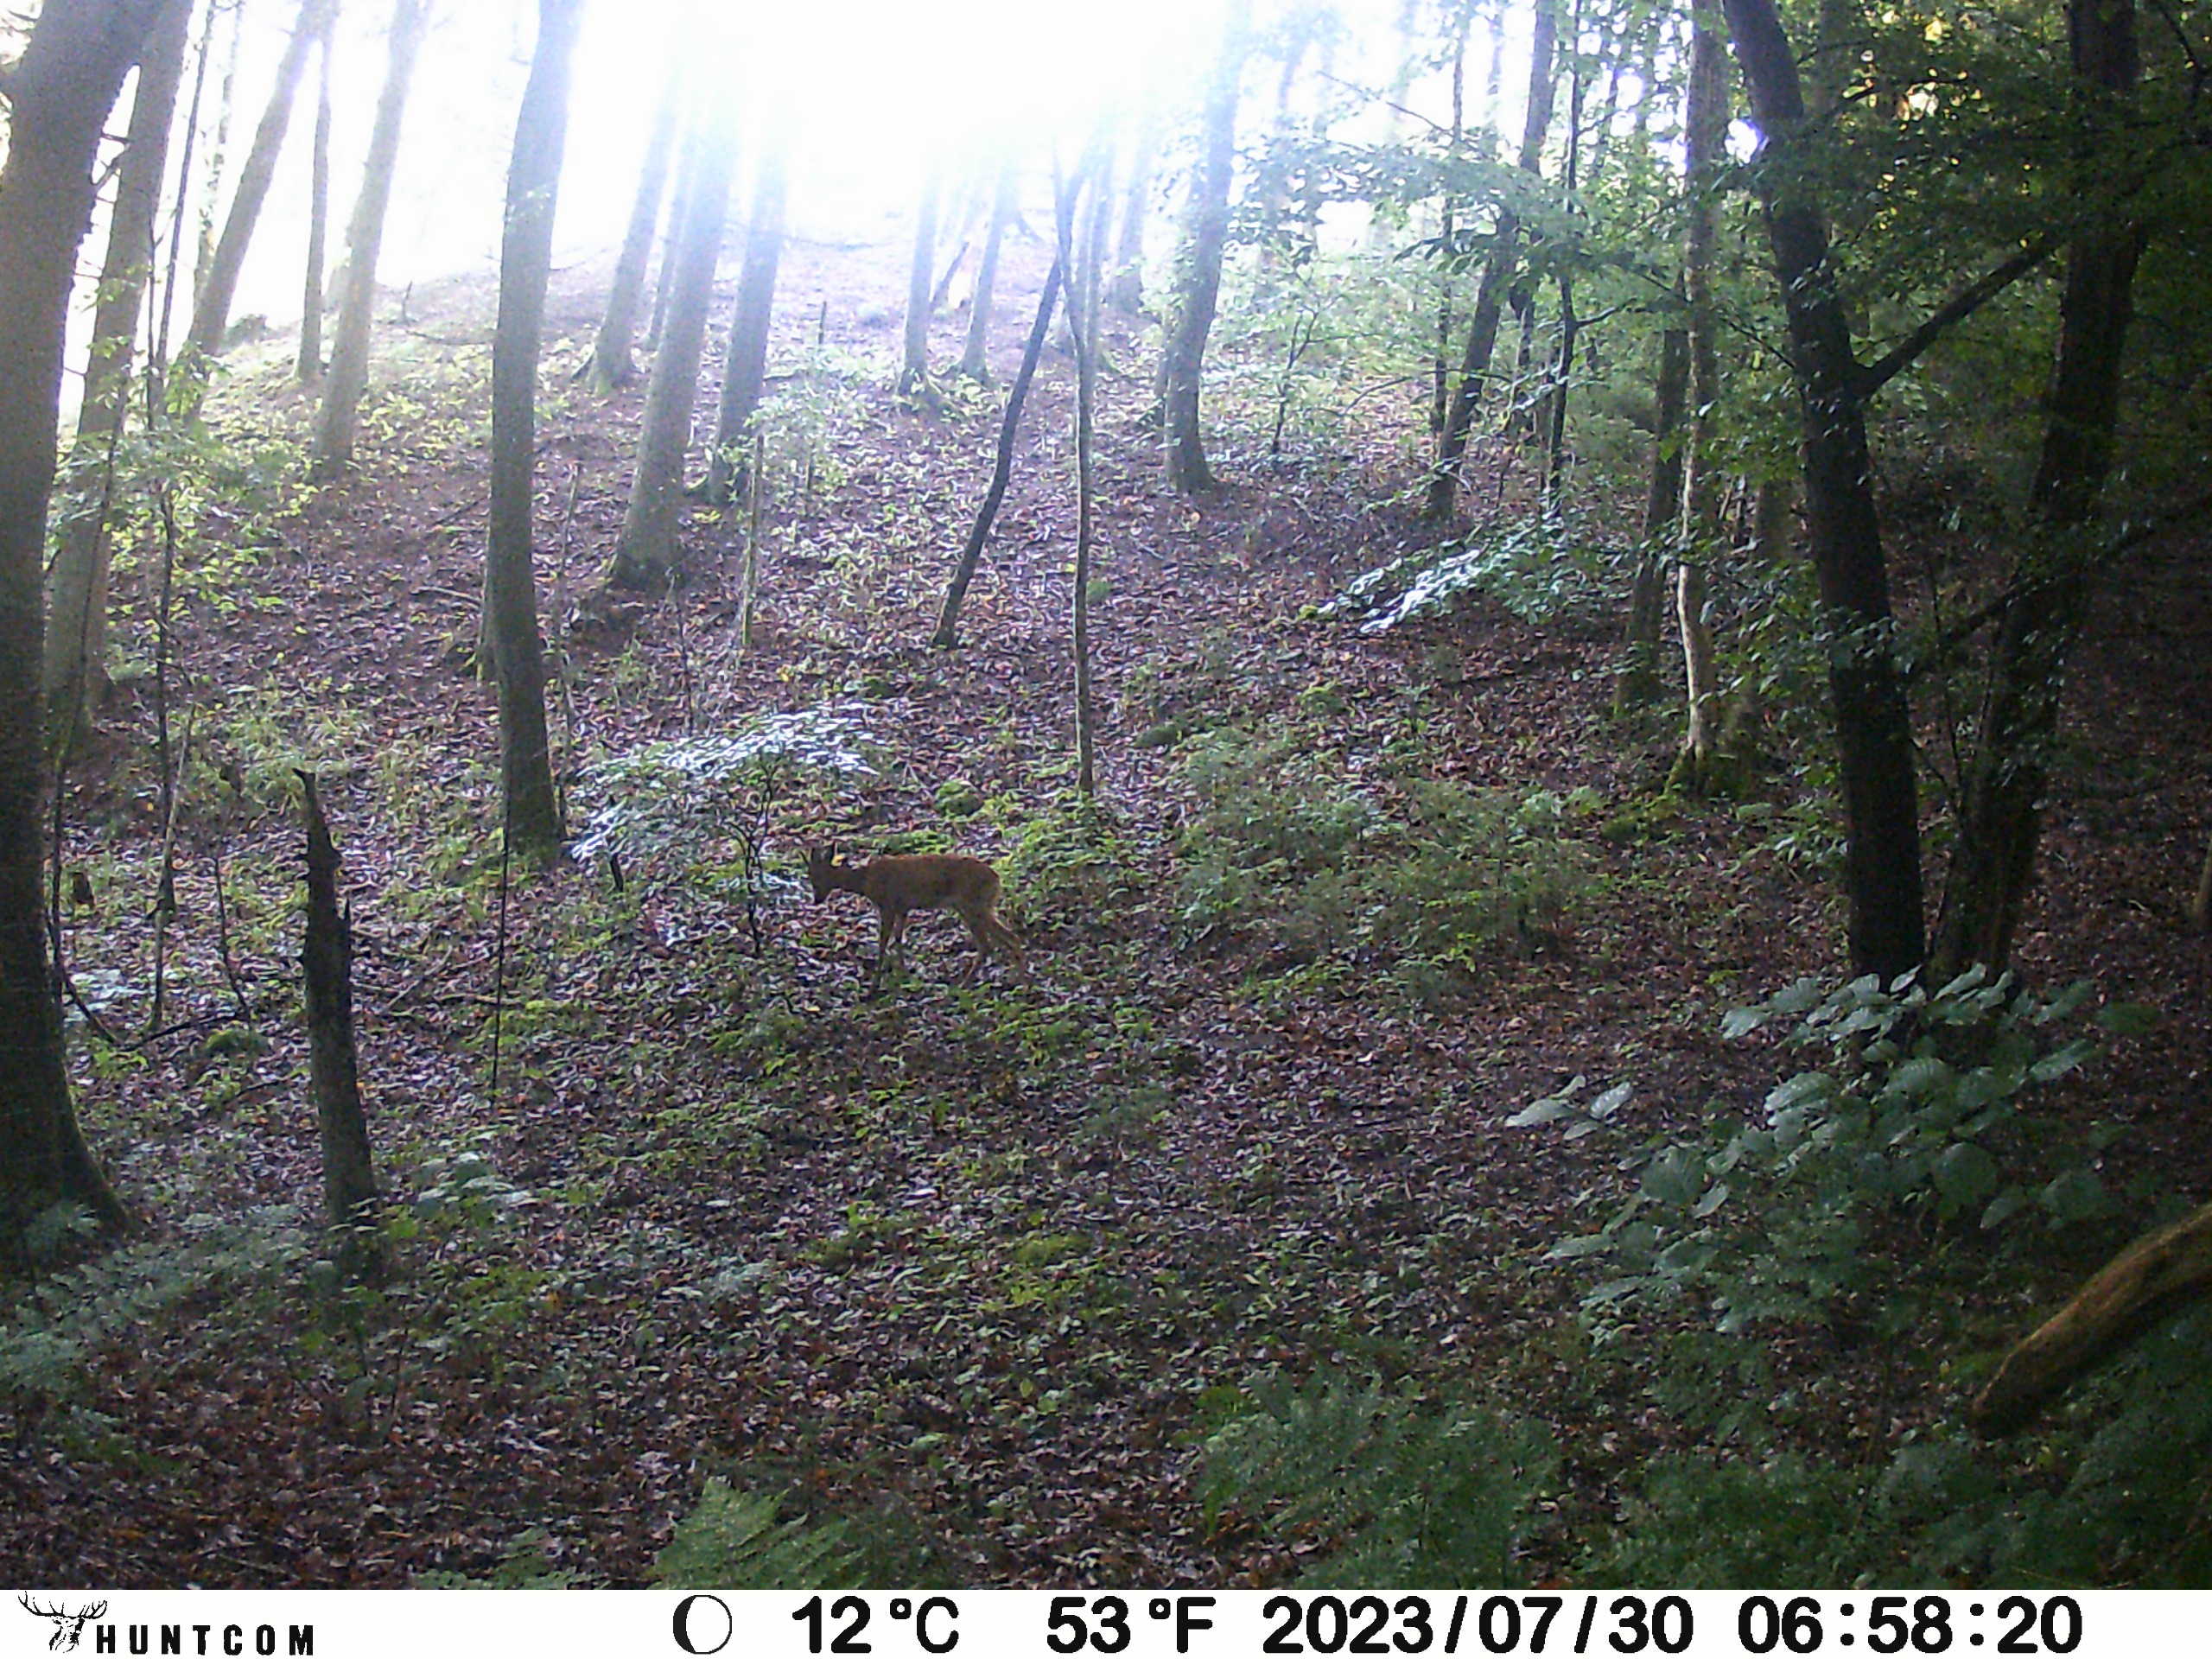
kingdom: Animalia
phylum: Chordata
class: Mammalia
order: Artiodactyla
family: Cervidae
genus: Capreolus
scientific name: Capreolus capreolus
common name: Rådyr
